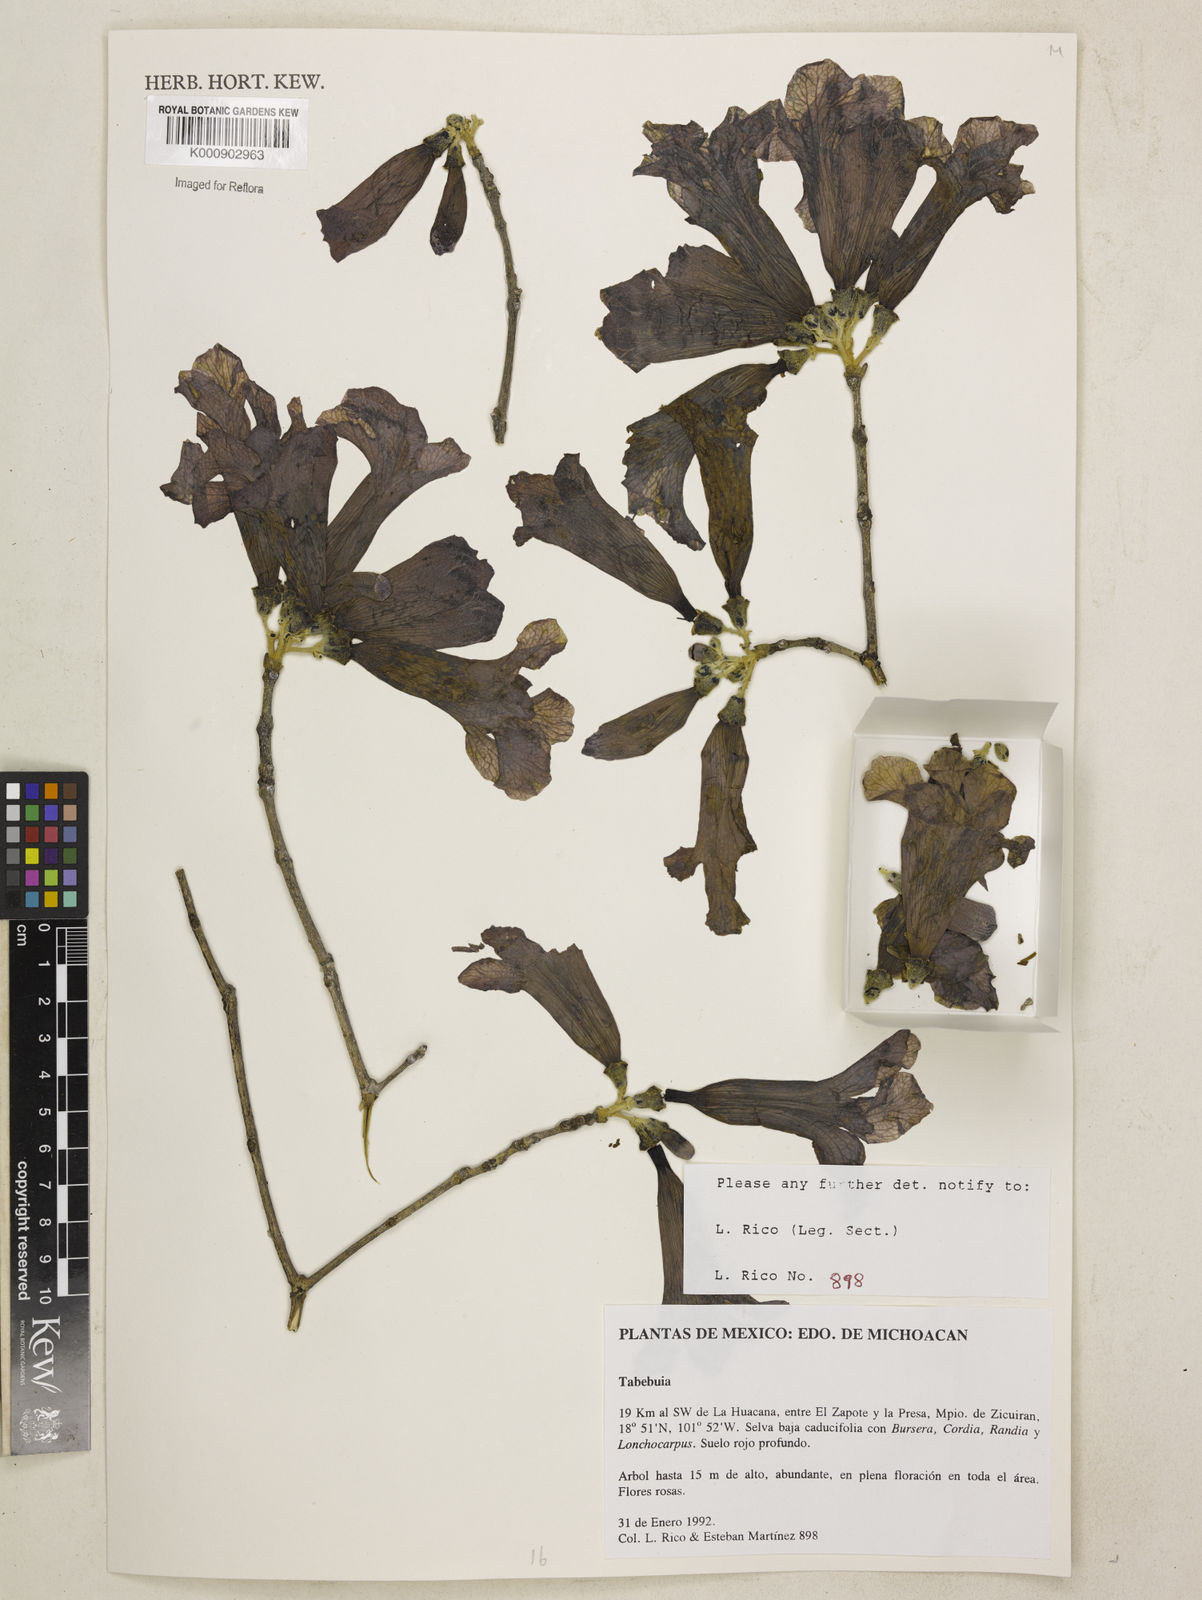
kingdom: Plantae
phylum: Tracheophyta
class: Magnoliopsida
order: Lamiales
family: Bignoniaceae
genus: Tabebuia
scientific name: Tabebuia
